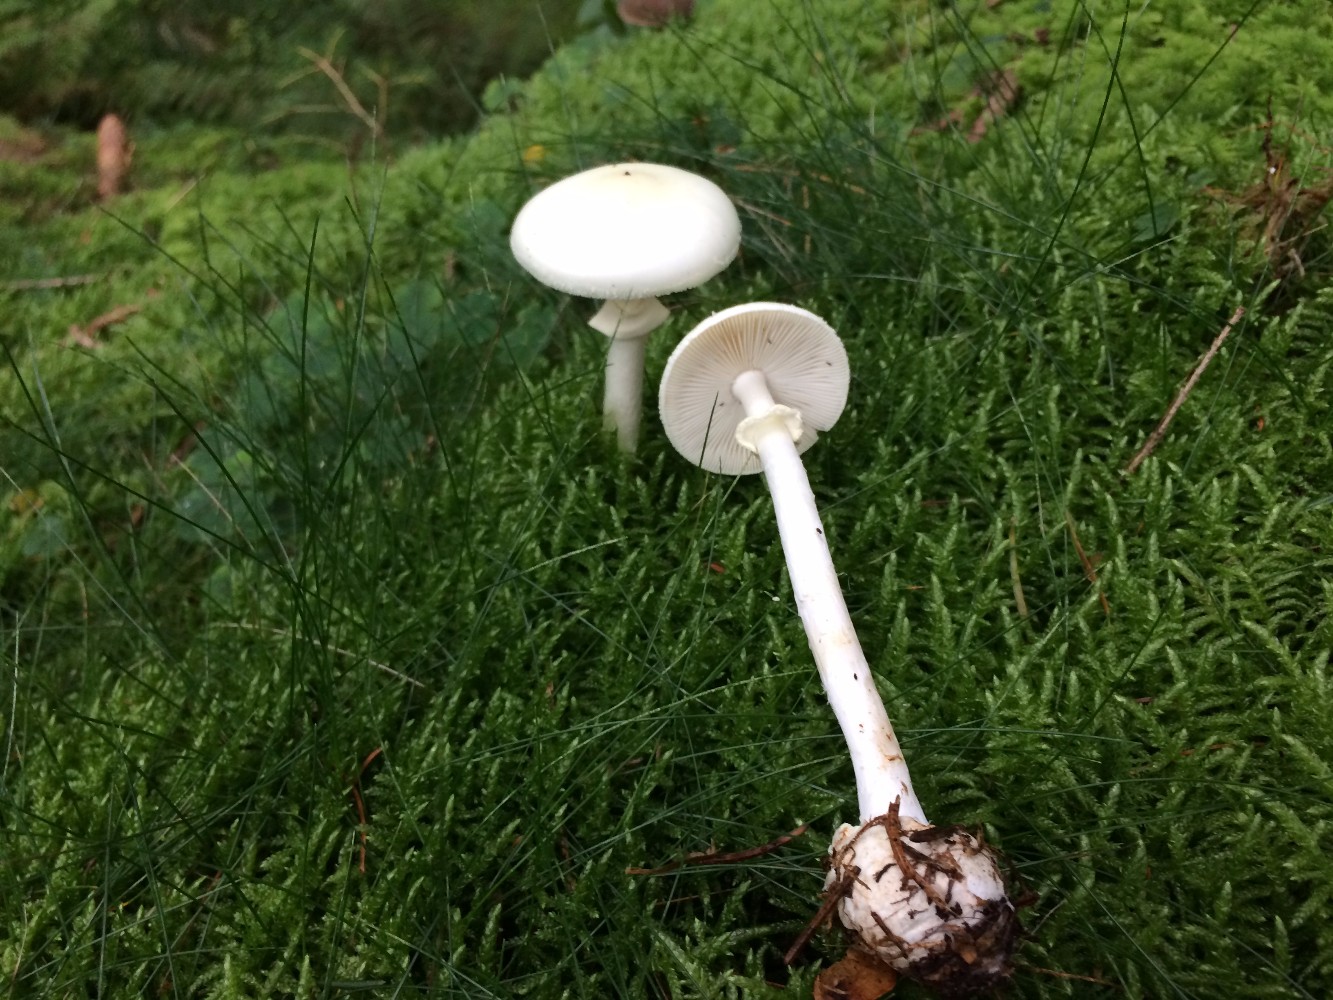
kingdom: Fungi
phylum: Basidiomycota
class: Agaricomycetes
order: Agaricales
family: Amanitaceae
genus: Amanita
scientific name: Amanita citrina
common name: False death-cap
